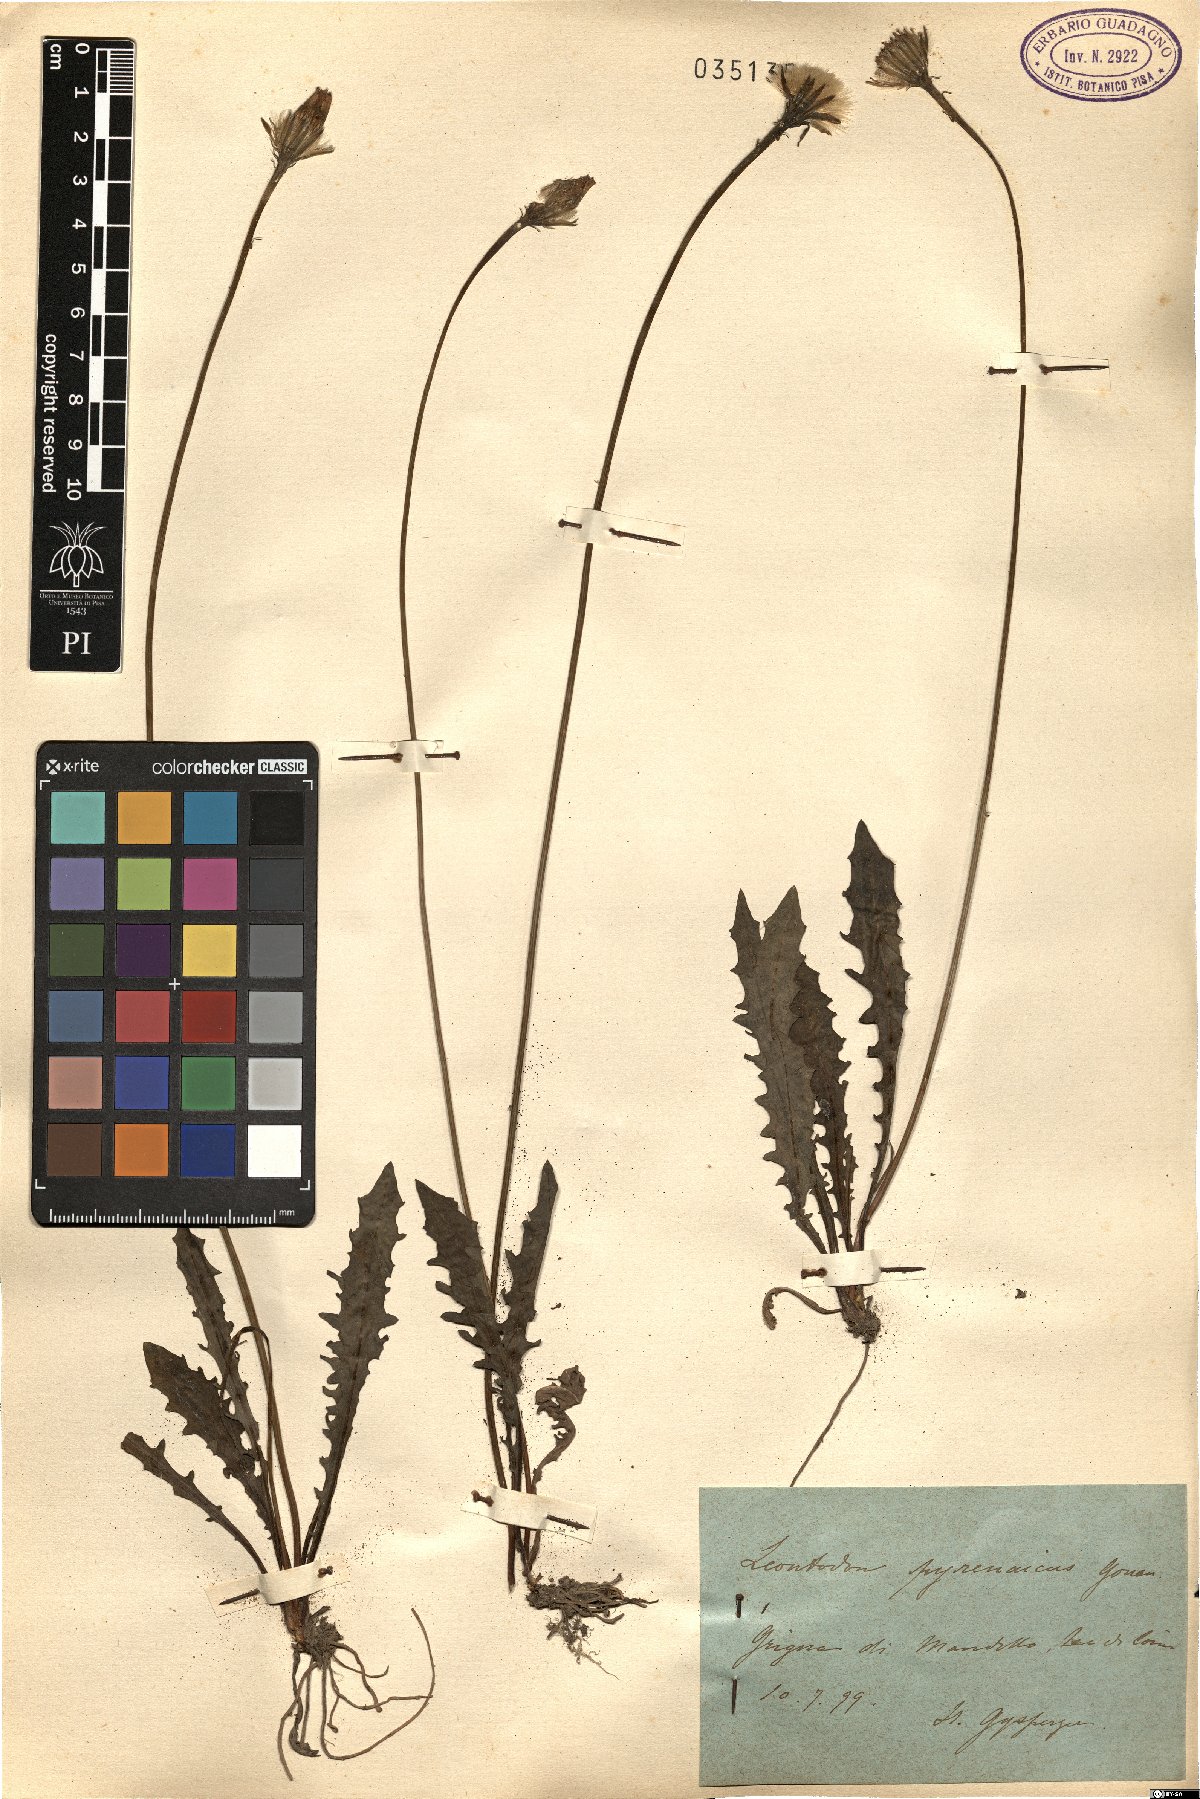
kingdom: Plantae
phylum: Tracheophyta
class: Magnoliopsida
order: Asterales
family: Asteraceae
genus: Scorzoneroides
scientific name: Scorzoneroides pyrenaica
